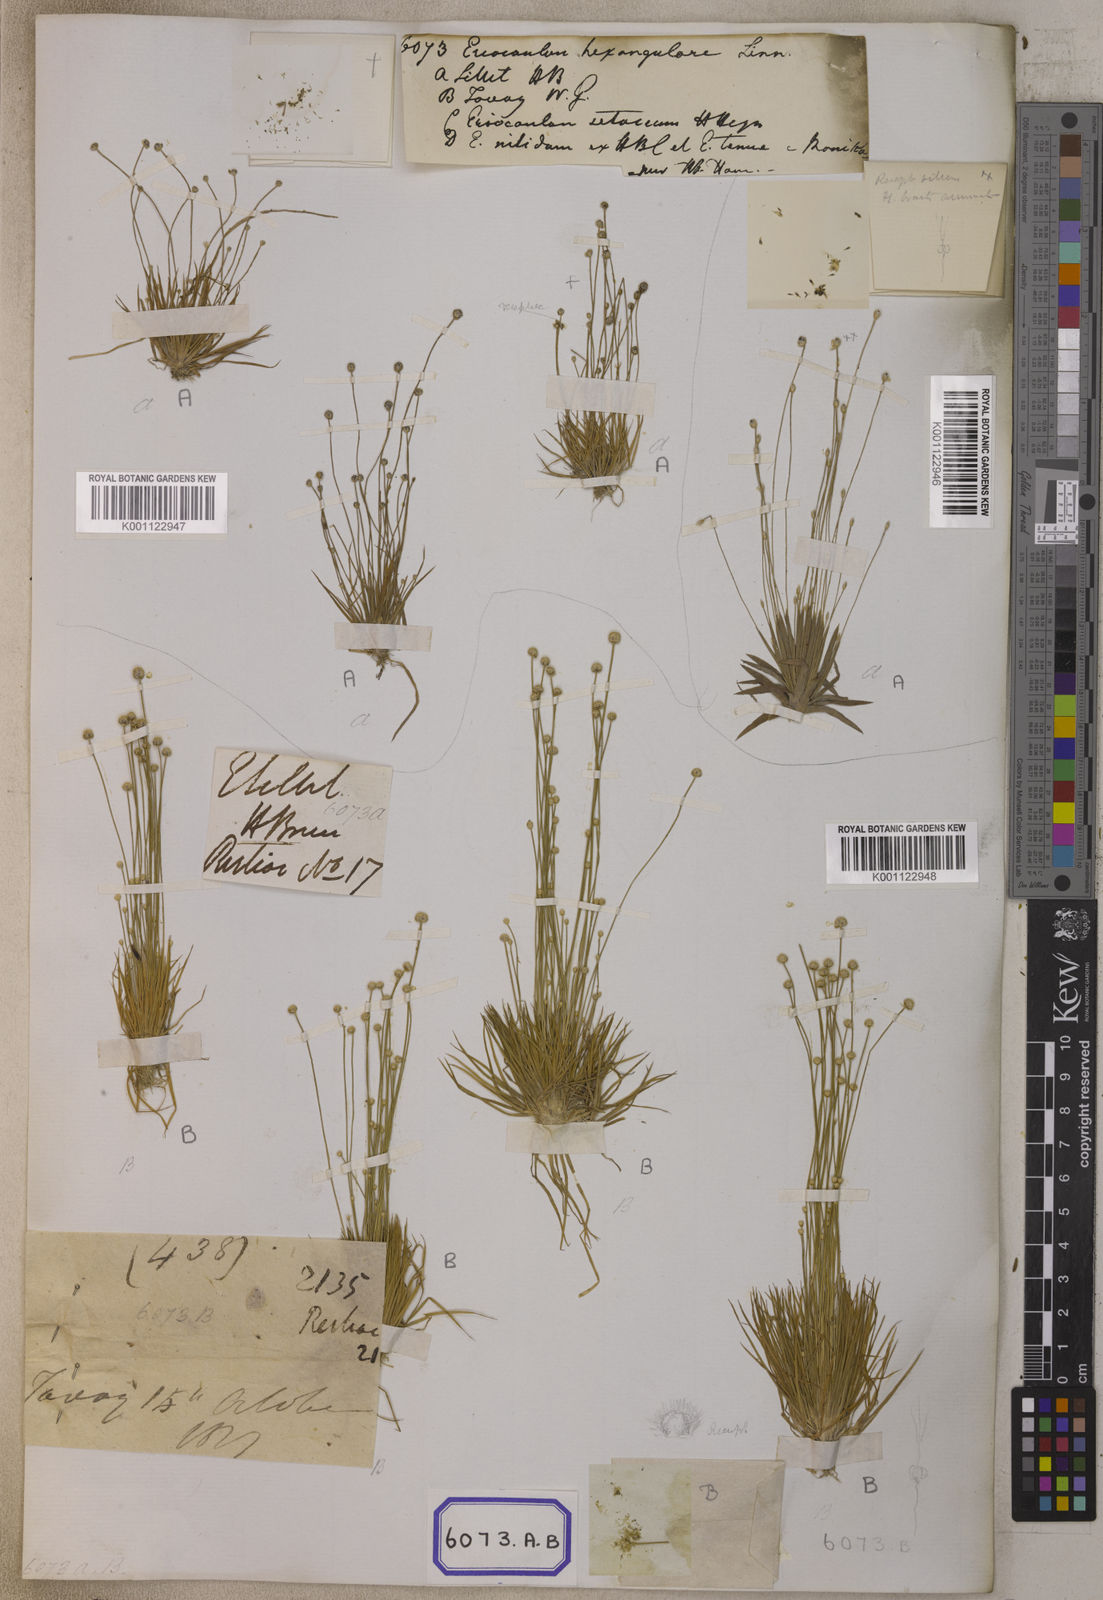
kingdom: Plantae
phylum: Tracheophyta
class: Liliopsida
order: Poales
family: Eriocaulaceae
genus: Eriocaulon
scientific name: Eriocaulon
